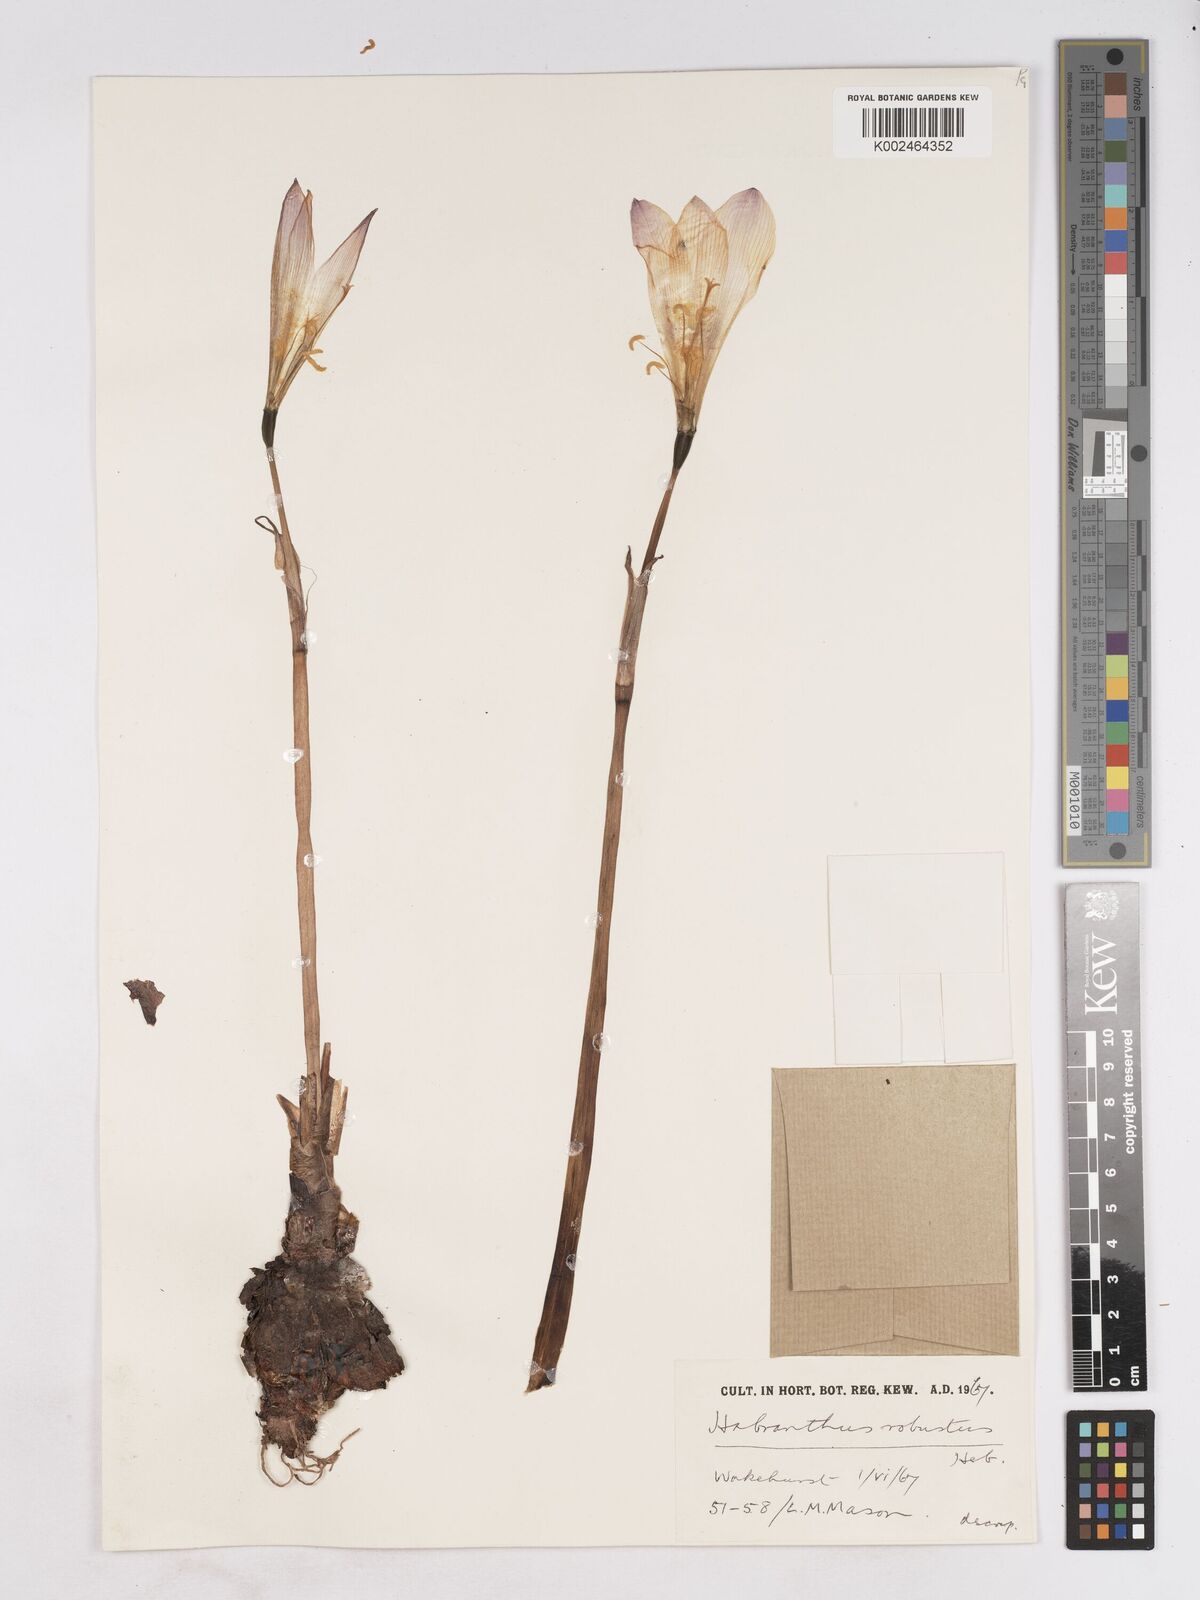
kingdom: Plantae
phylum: Tracheophyta
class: Liliopsida
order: Asparagales
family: Amaryllidaceae
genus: Zephyranthes
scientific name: Zephyranthes robusta
